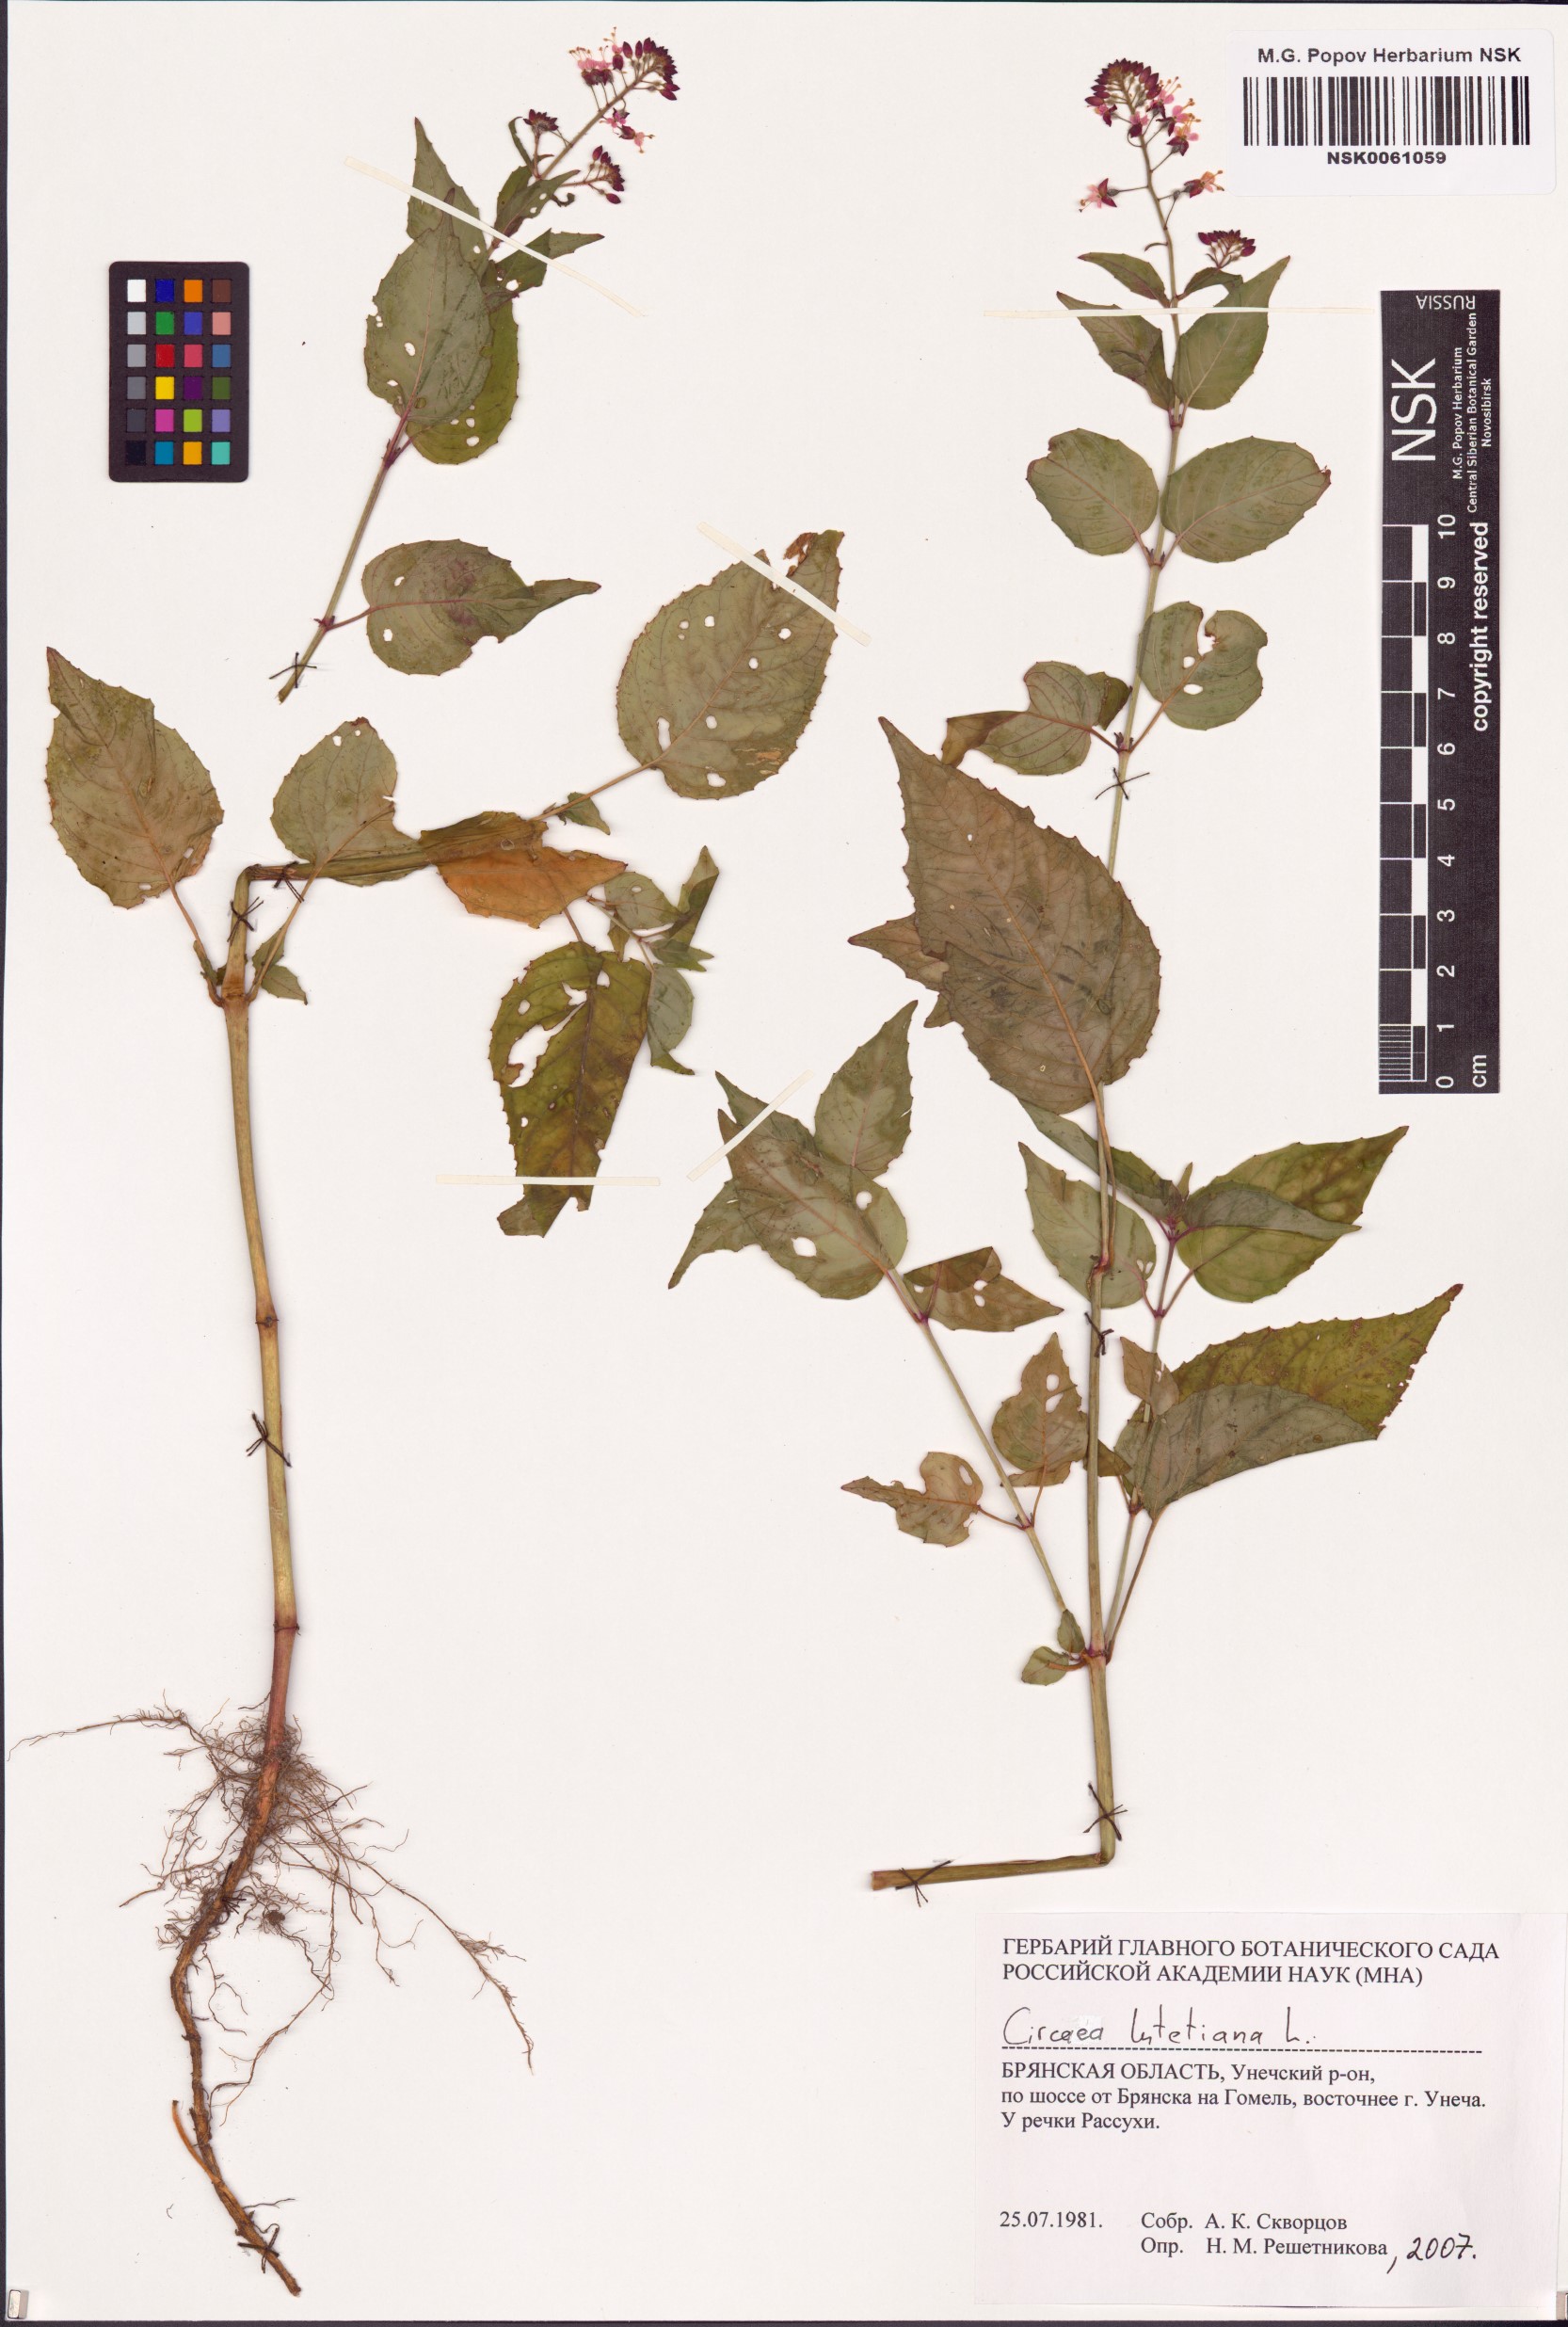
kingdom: Plantae
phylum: Tracheophyta
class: Magnoliopsida
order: Myrtales
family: Onagraceae
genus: Circaea
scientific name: Circaea lutetiana
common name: Enchanter's-nightshade
